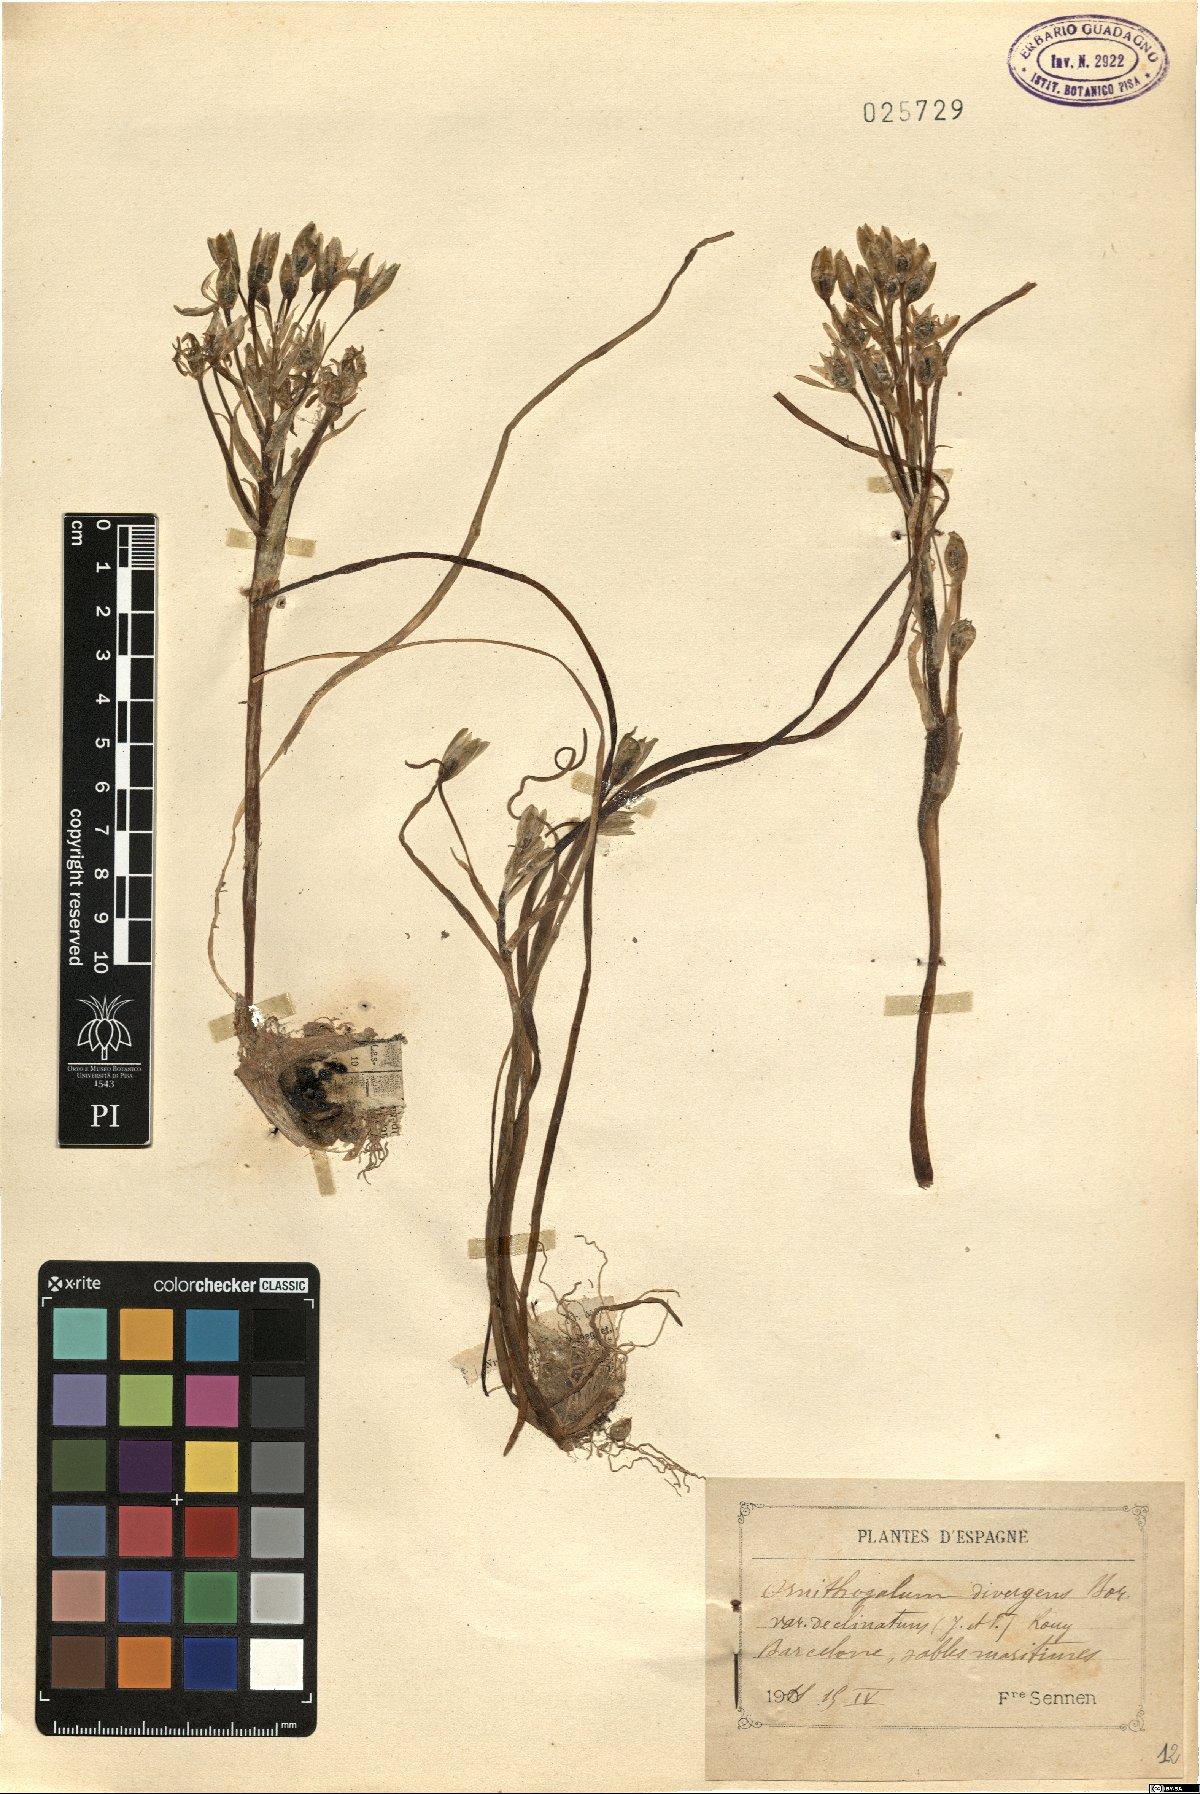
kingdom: Plantae
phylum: Tracheophyta
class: Liliopsida
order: Asparagales
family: Asparagaceae
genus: Ornithogalum
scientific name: Ornithogalum divergens
